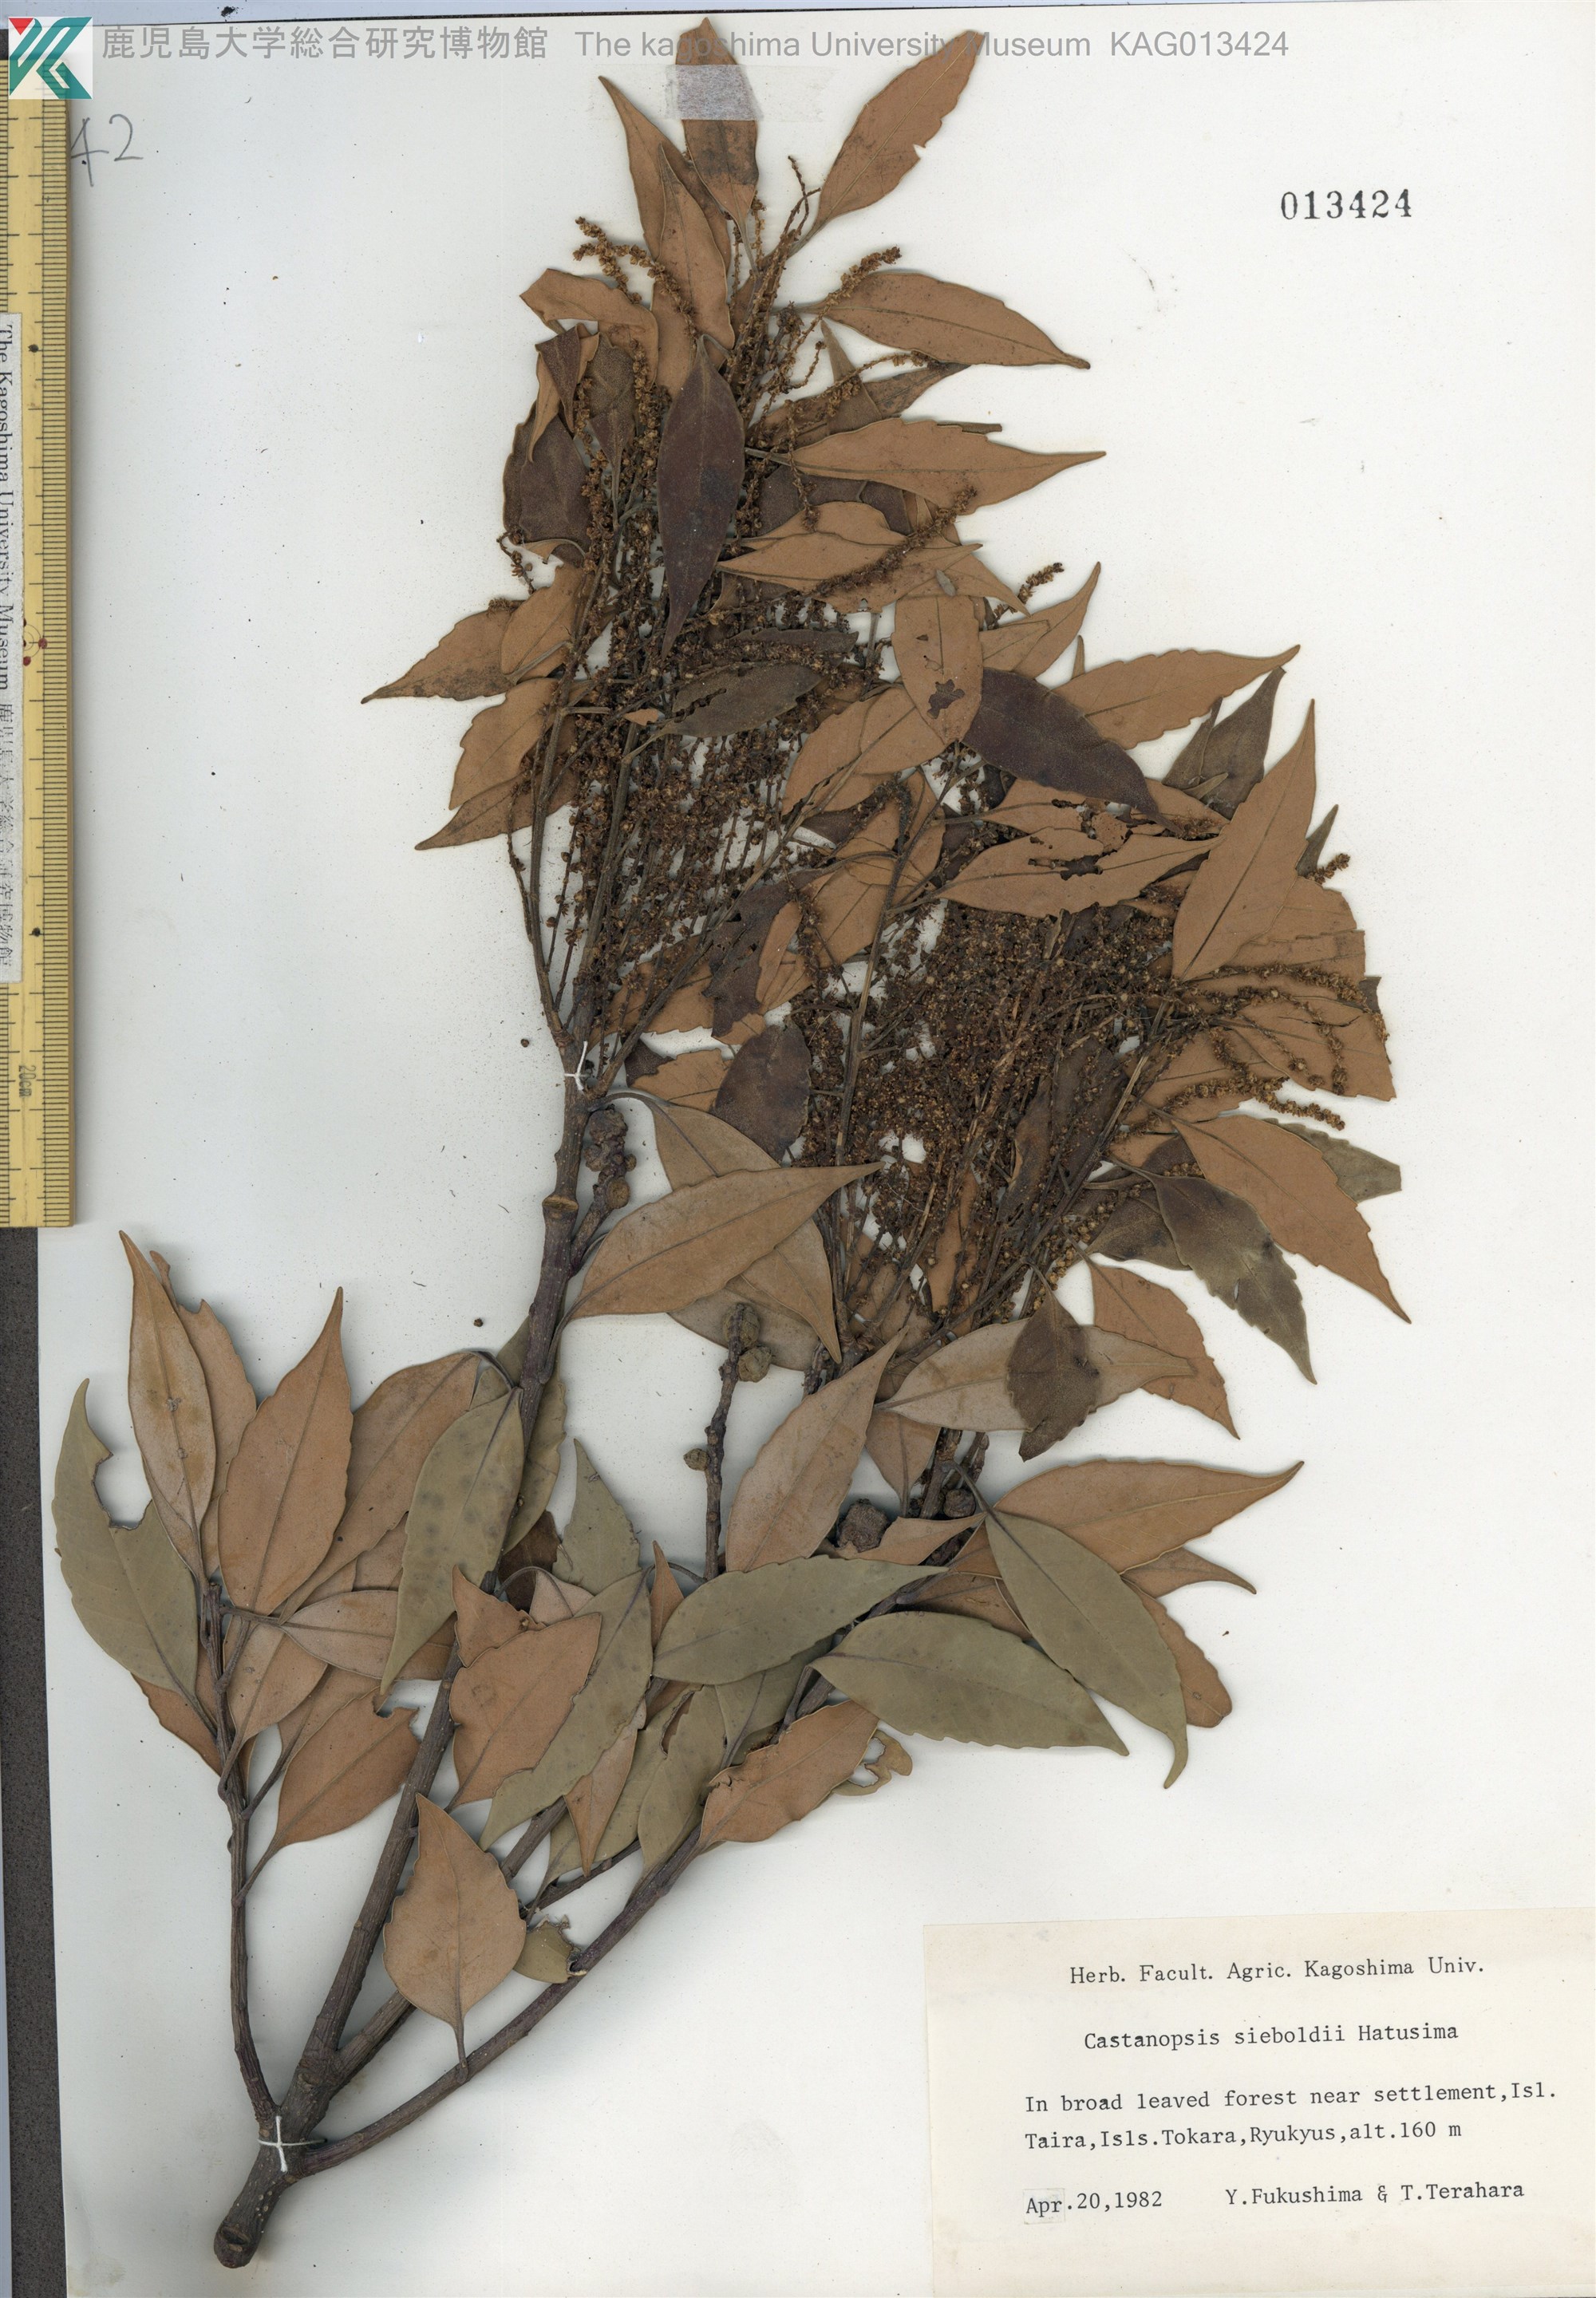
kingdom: Plantae
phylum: Tracheophyta
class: Magnoliopsida
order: Fagales
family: Fagaceae
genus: Castanopsis
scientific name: Castanopsis sieboldii
